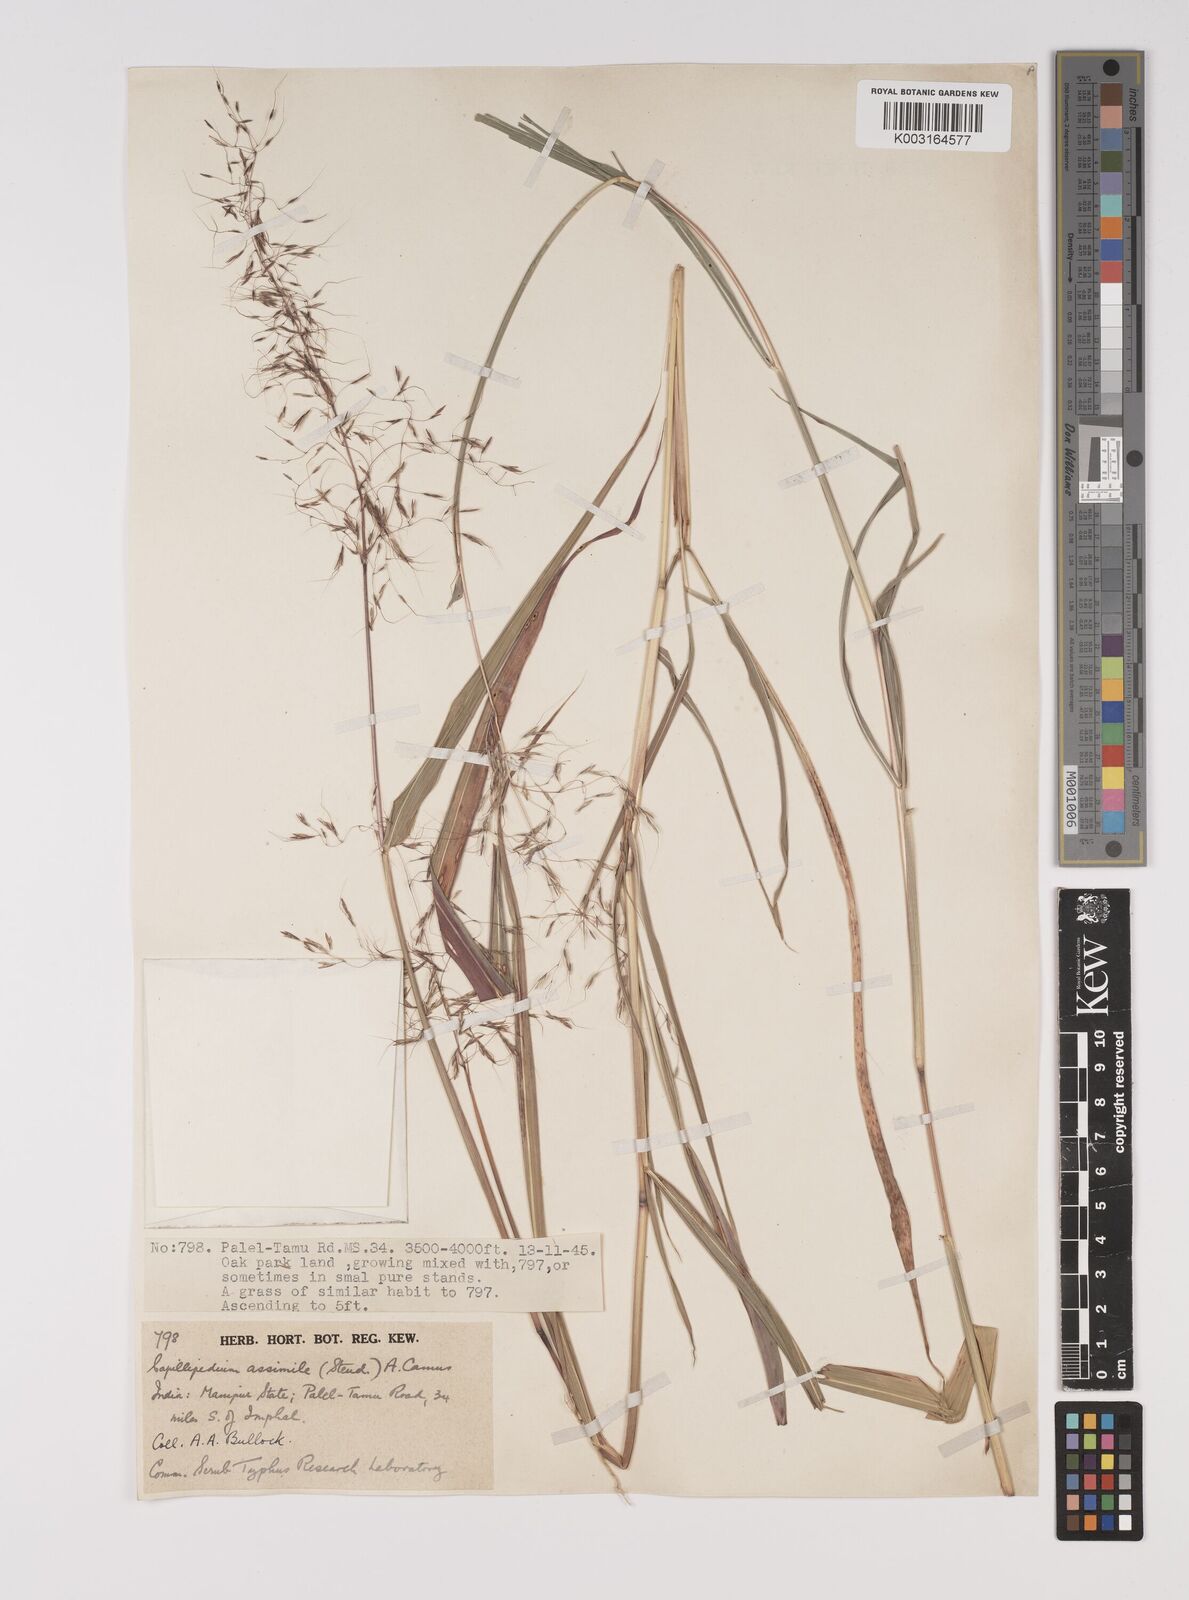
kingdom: Plantae
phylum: Tracheophyta
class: Liliopsida
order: Poales
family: Poaceae
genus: Capillipedium
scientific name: Capillipedium spicigerum
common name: Scented-top grass
